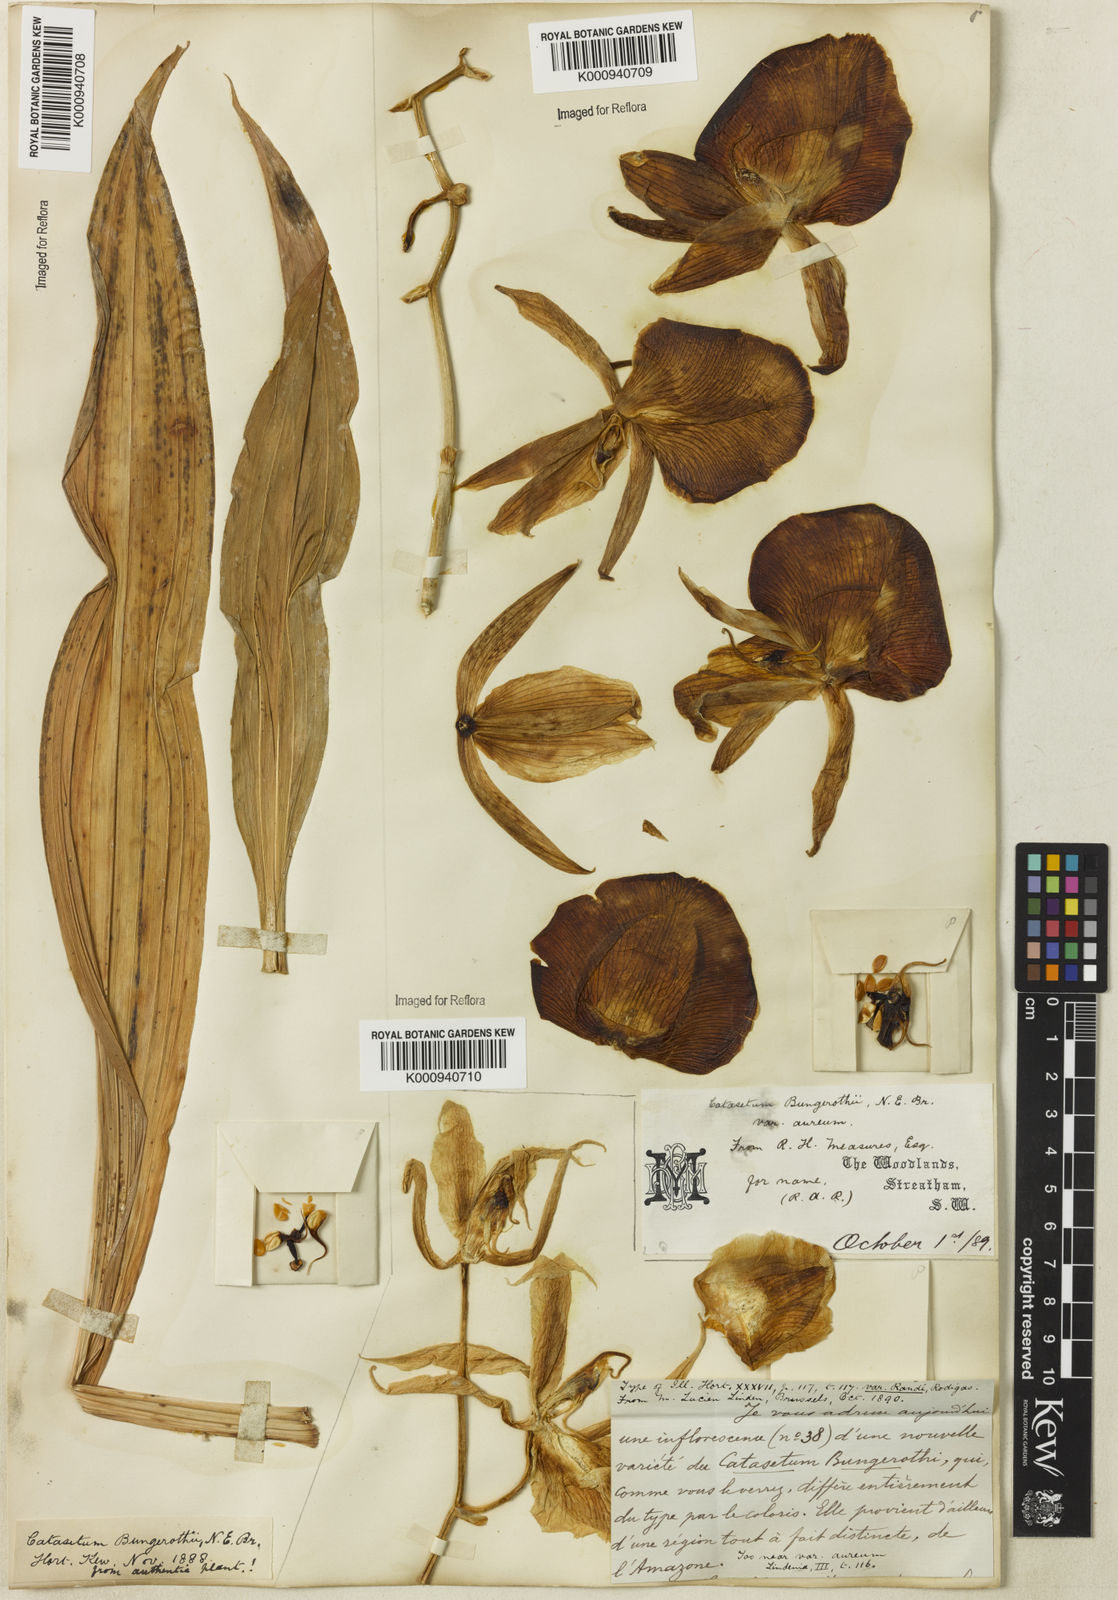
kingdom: Plantae
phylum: Tracheophyta
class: Liliopsida
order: Asparagales
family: Orchidaceae
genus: Catasetum
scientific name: Catasetum
